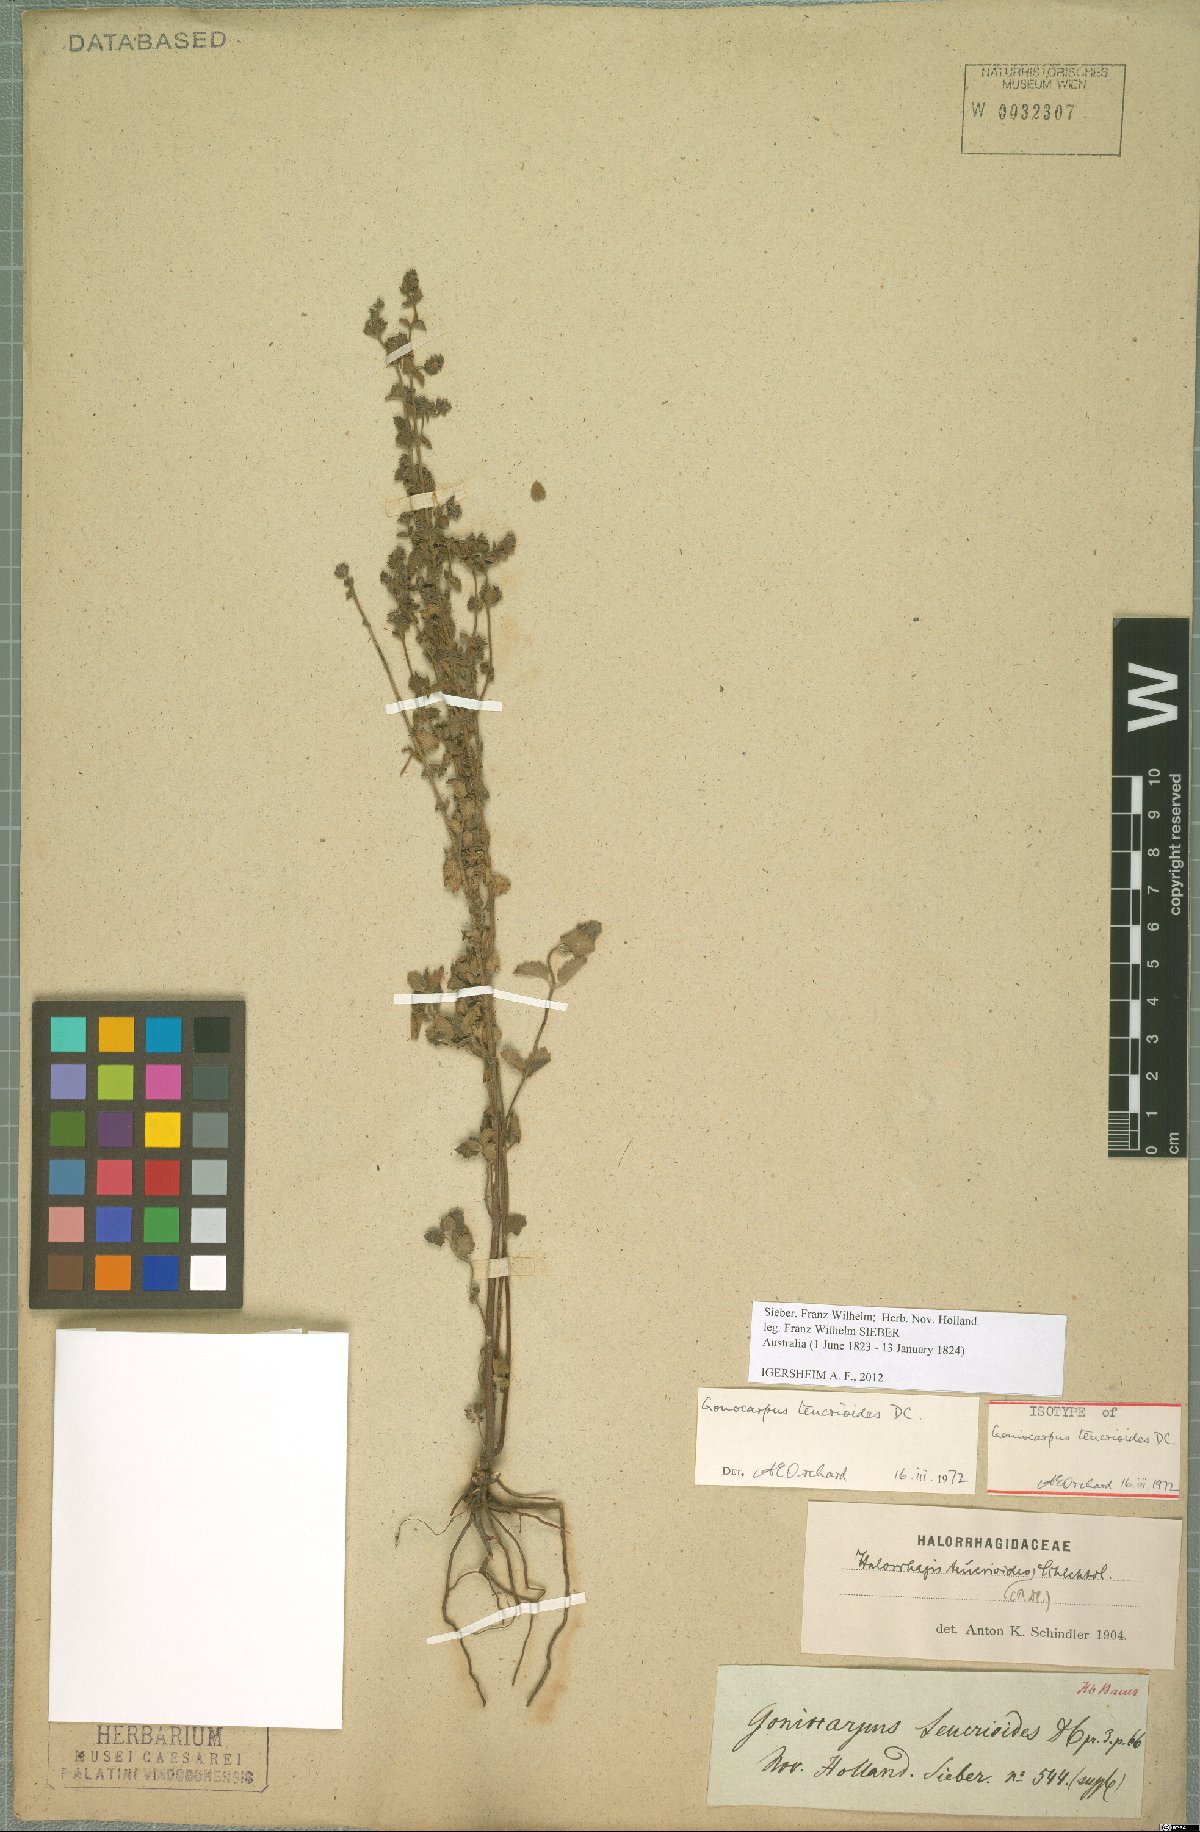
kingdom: Plantae
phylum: Tracheophyta
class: Magnoliopsida
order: Saxifragales
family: Haloragaceae
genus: Gonocarpus
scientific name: Gonocarpus teucrioides
